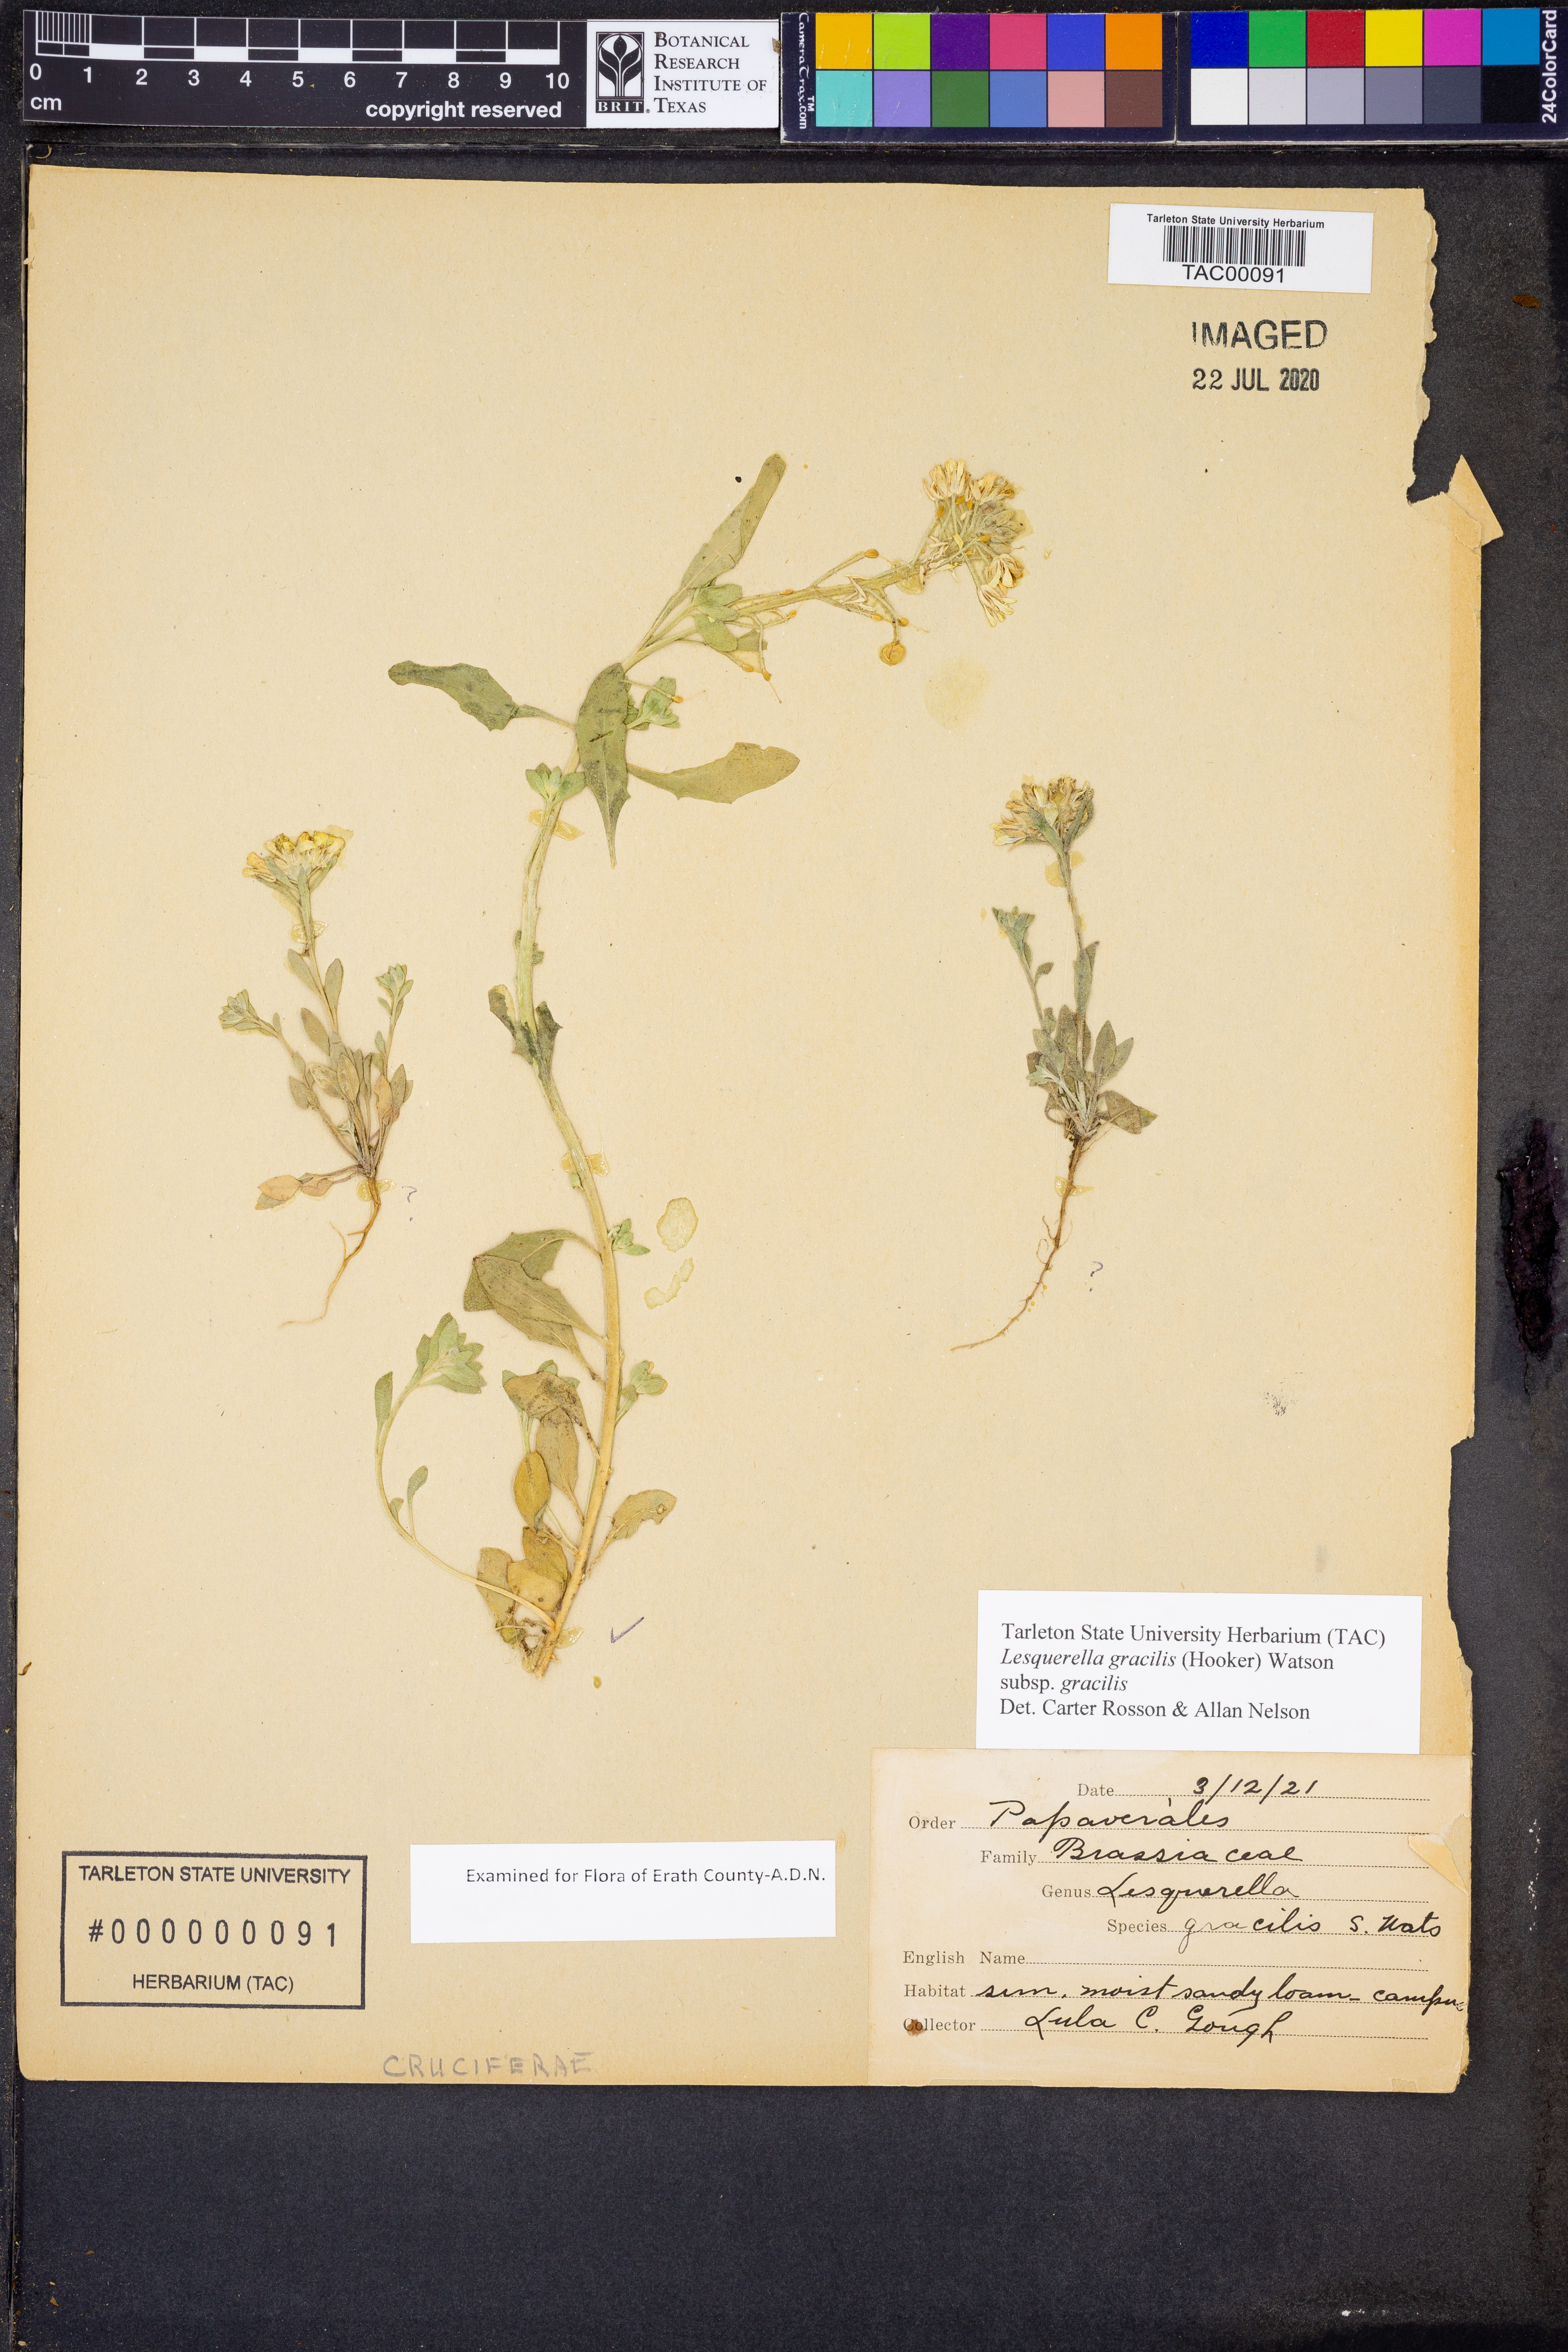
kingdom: Plantae
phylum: Tracheophyta
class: Magnoliopsida
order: Brassicales
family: Brassicaceae
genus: Physaria
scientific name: Physaria gracilis
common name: Spreading bladderpod
